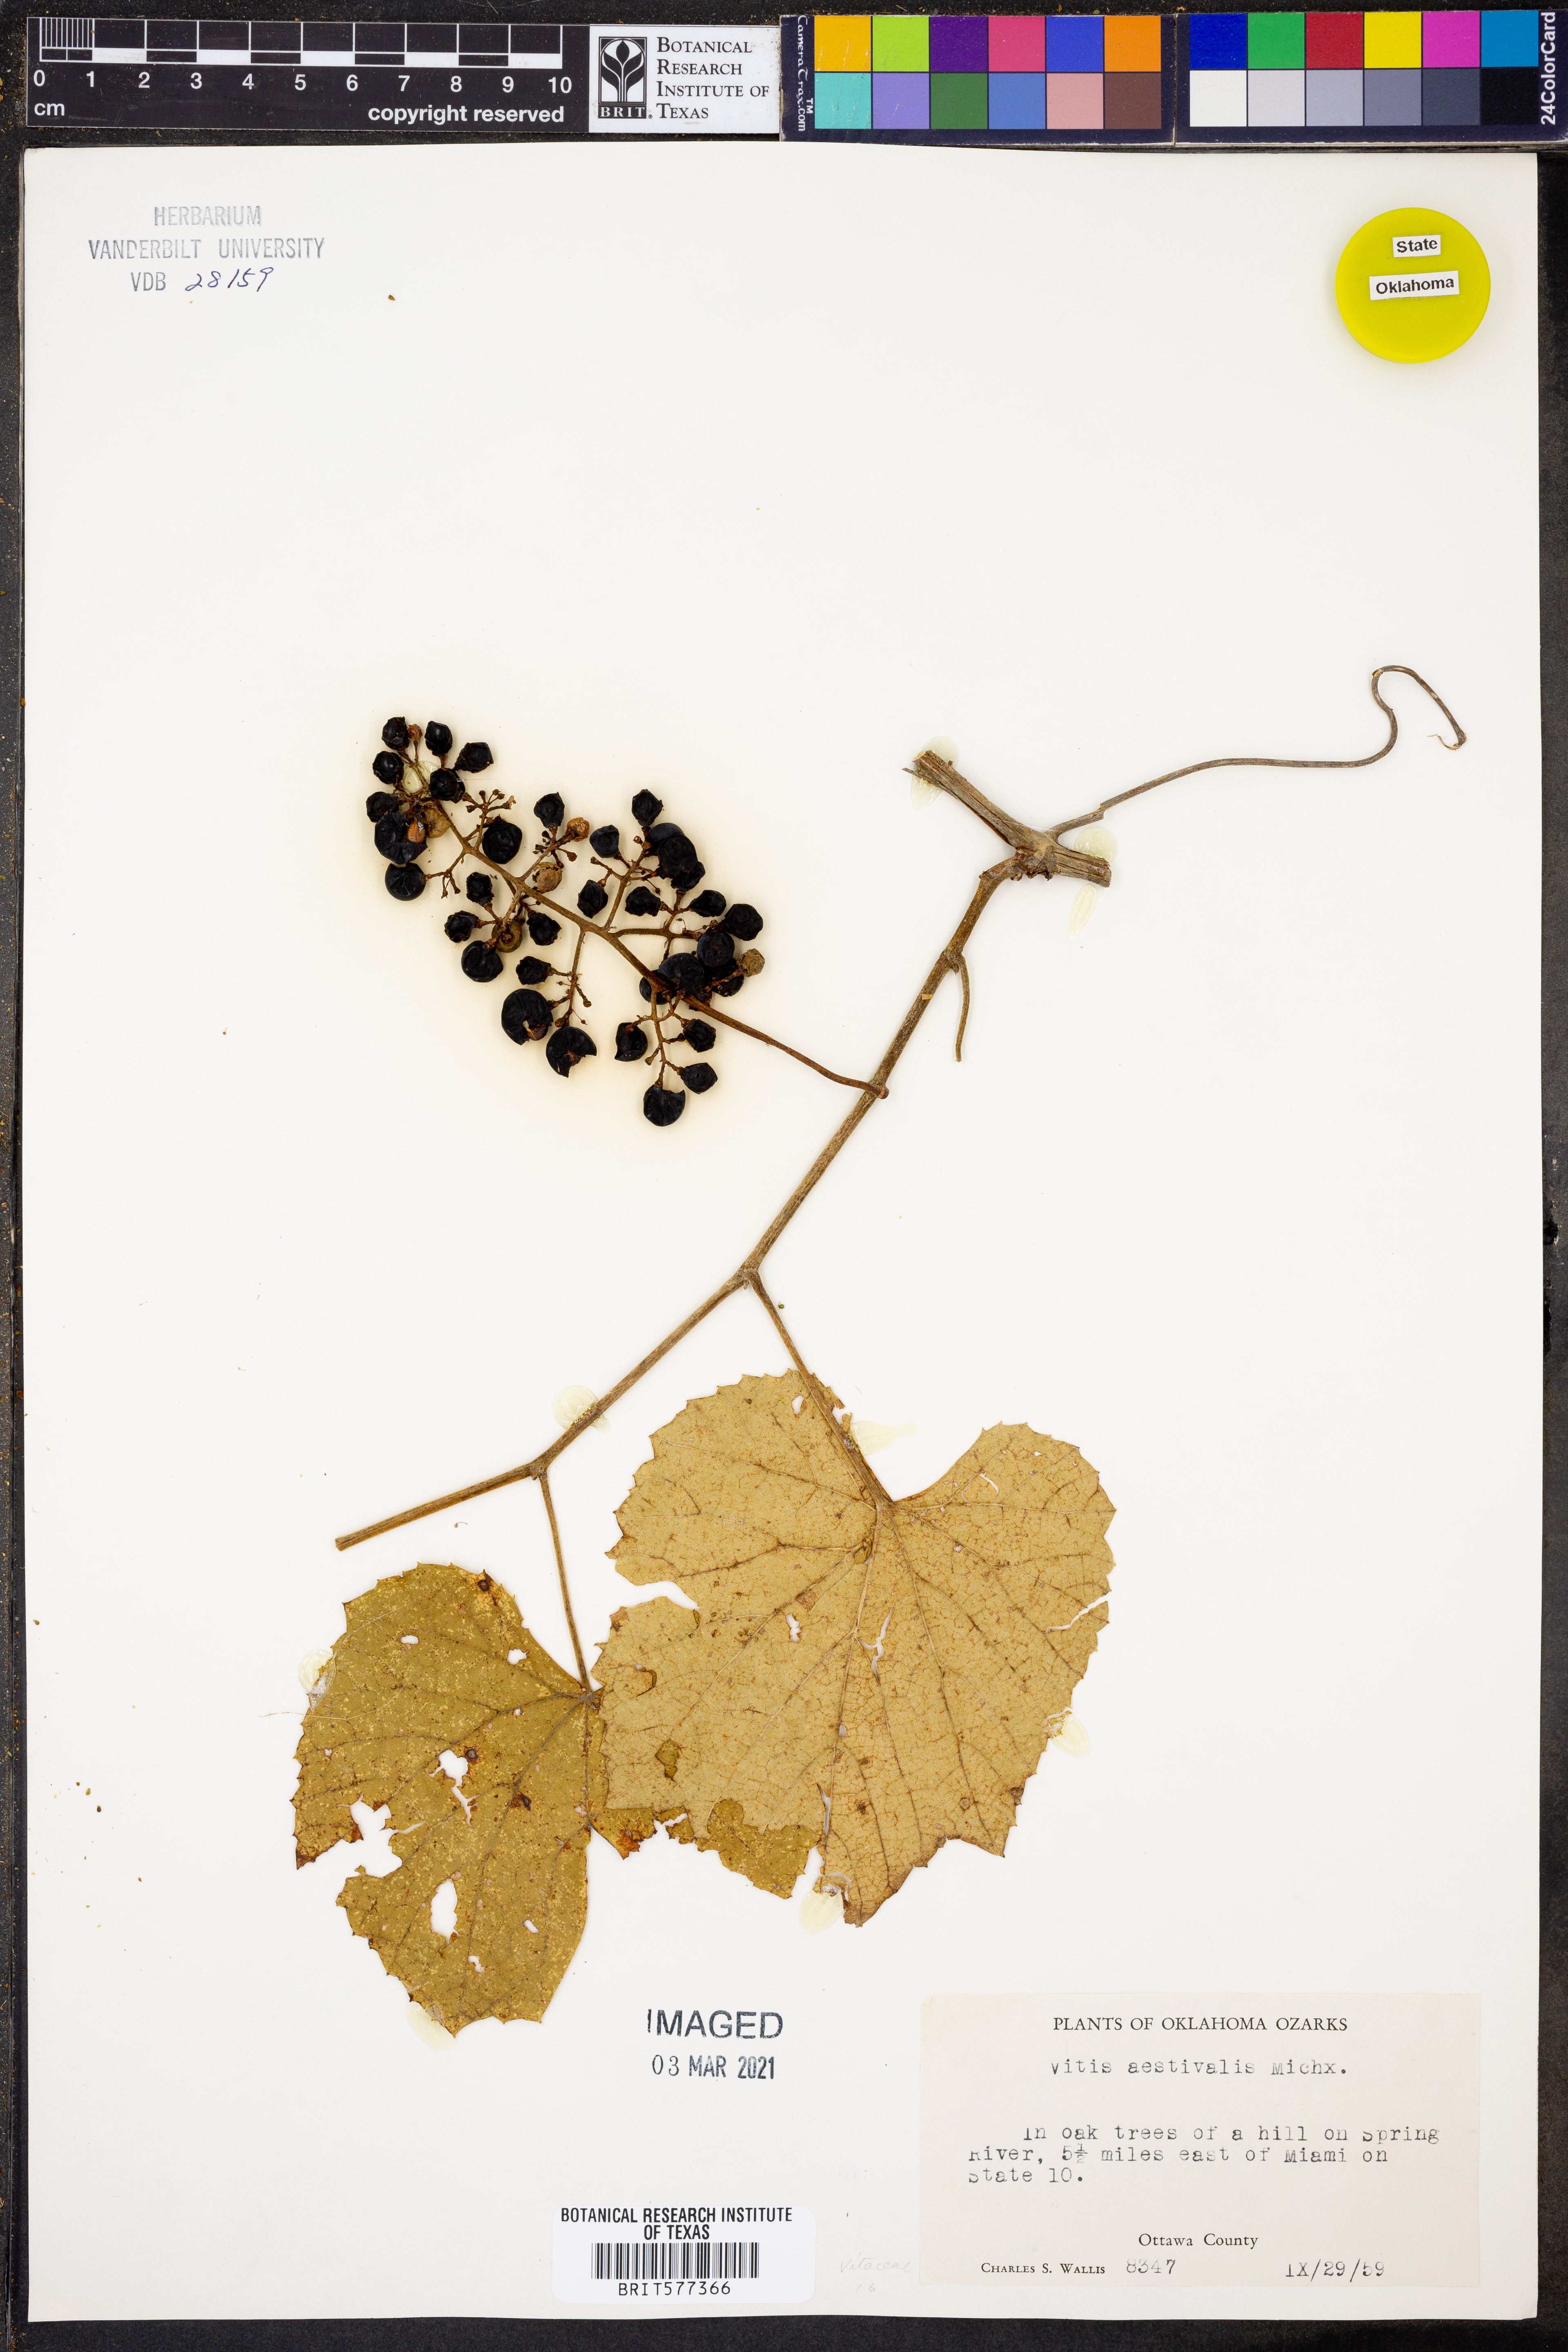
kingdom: Plantae
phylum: Tracheophyta
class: Magnoliopsida
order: Vitales
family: Vitaceae
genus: Vitis
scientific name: Vitis aestivalis
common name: Pigeon grape
